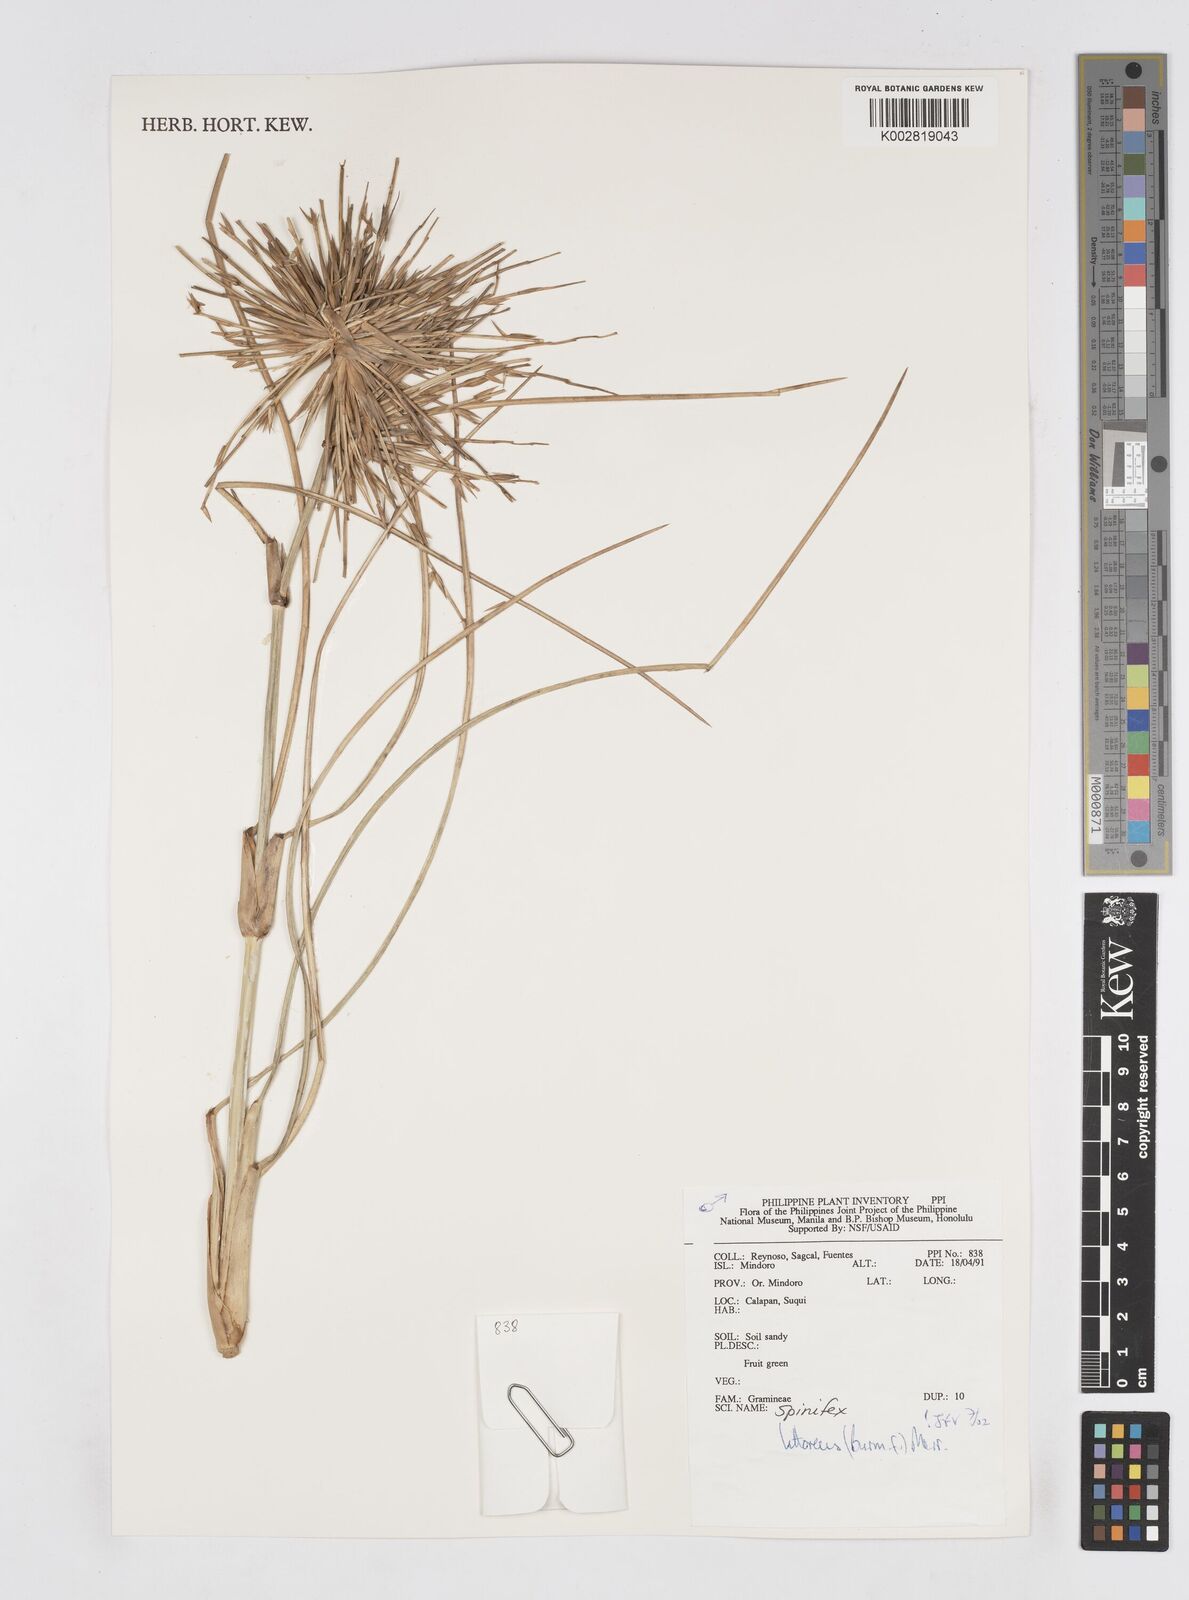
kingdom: Plantae
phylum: Tracheophyta
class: Liliopsida
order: Poales
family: Poaceae
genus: Spinifex
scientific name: Spinifex littoreus
